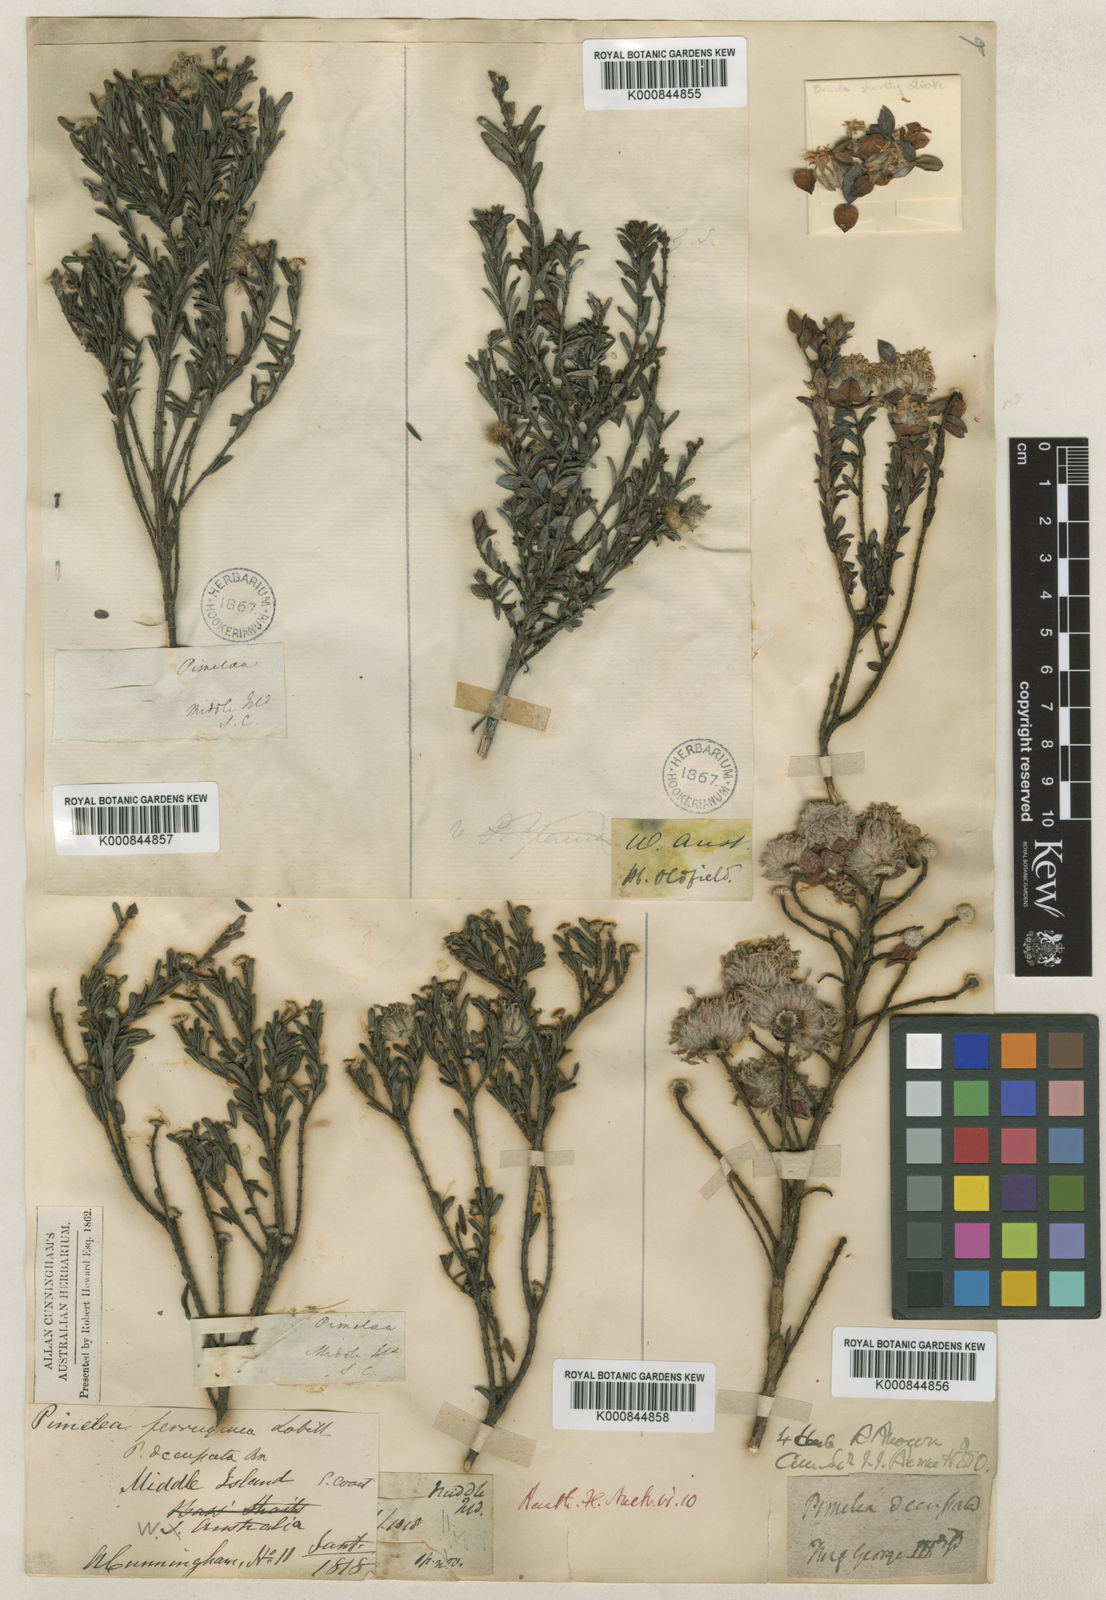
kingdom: Plantae
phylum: Tracheophyta
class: Magnoliopsida
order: Malvales
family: Thymelaeaceae
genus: Pimelea
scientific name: Pimelea ferruginea
